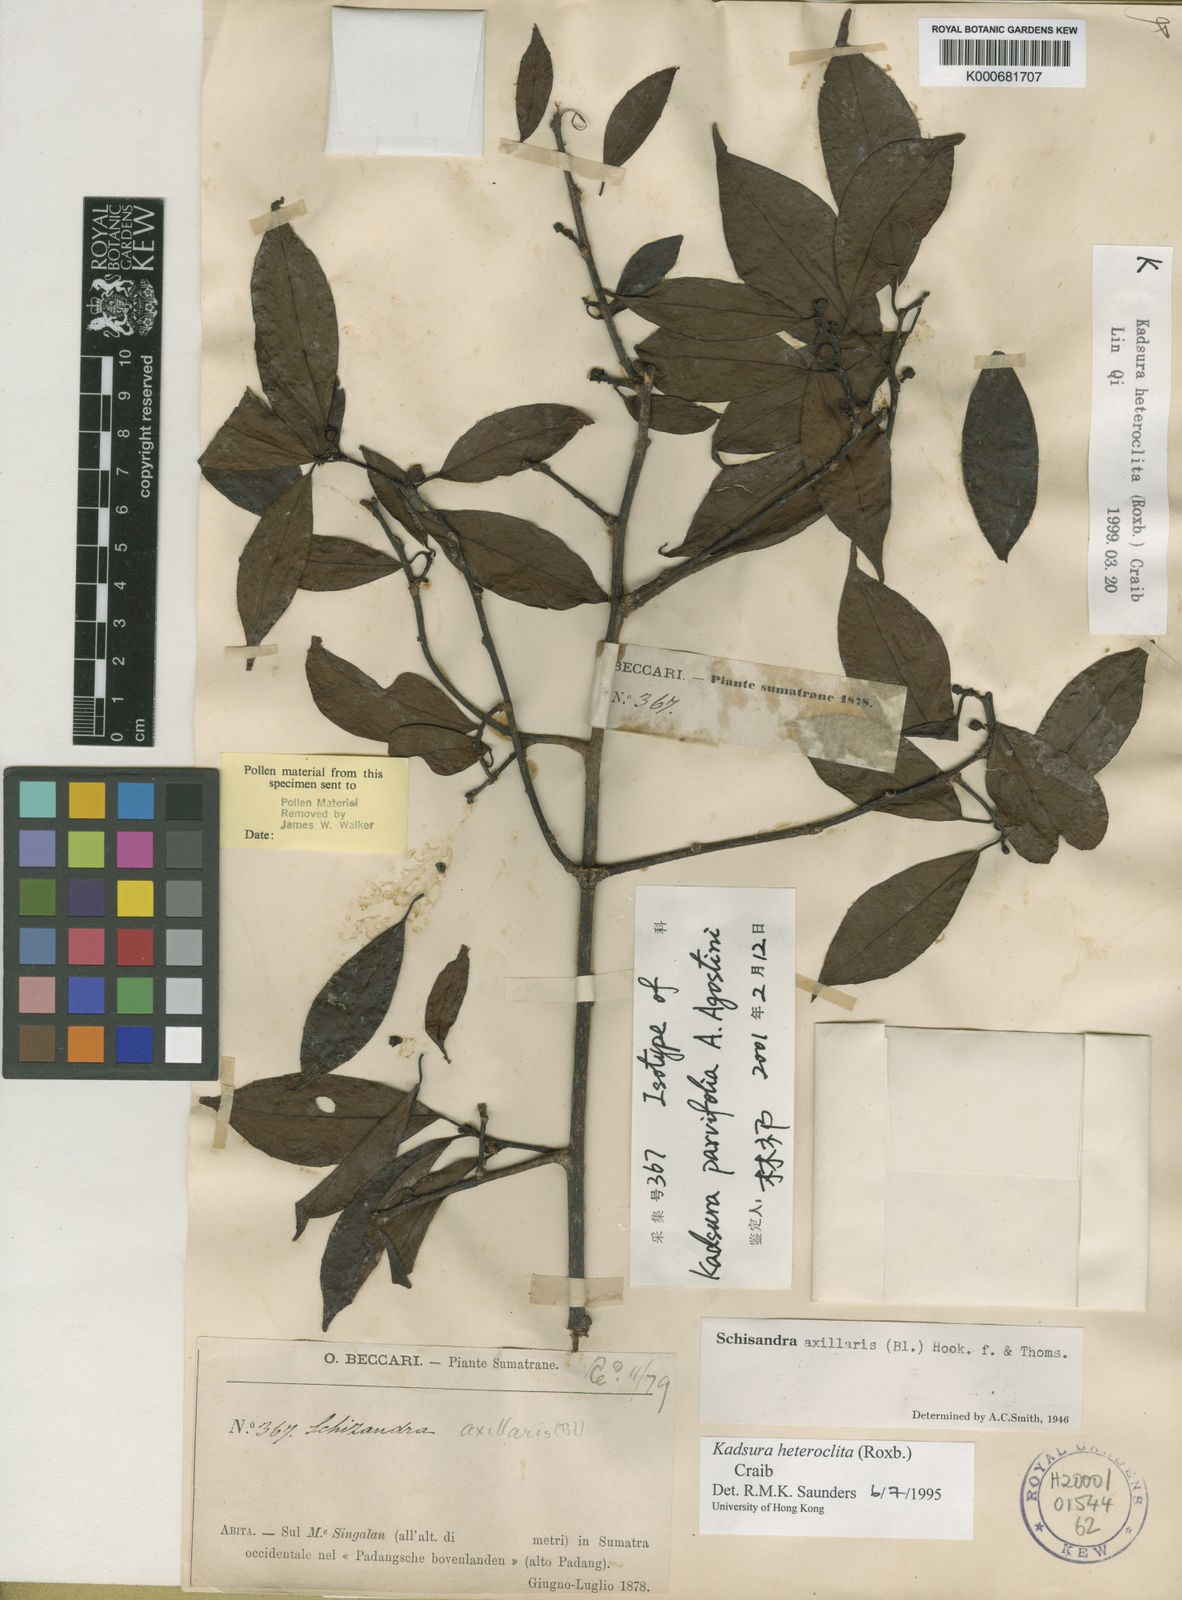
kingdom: Plantae
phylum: Tracheophyta
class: Magnoliopsida
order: Austrobaileyales
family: Schisandraceae
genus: Kadsura
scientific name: Kadsura heteroclita
